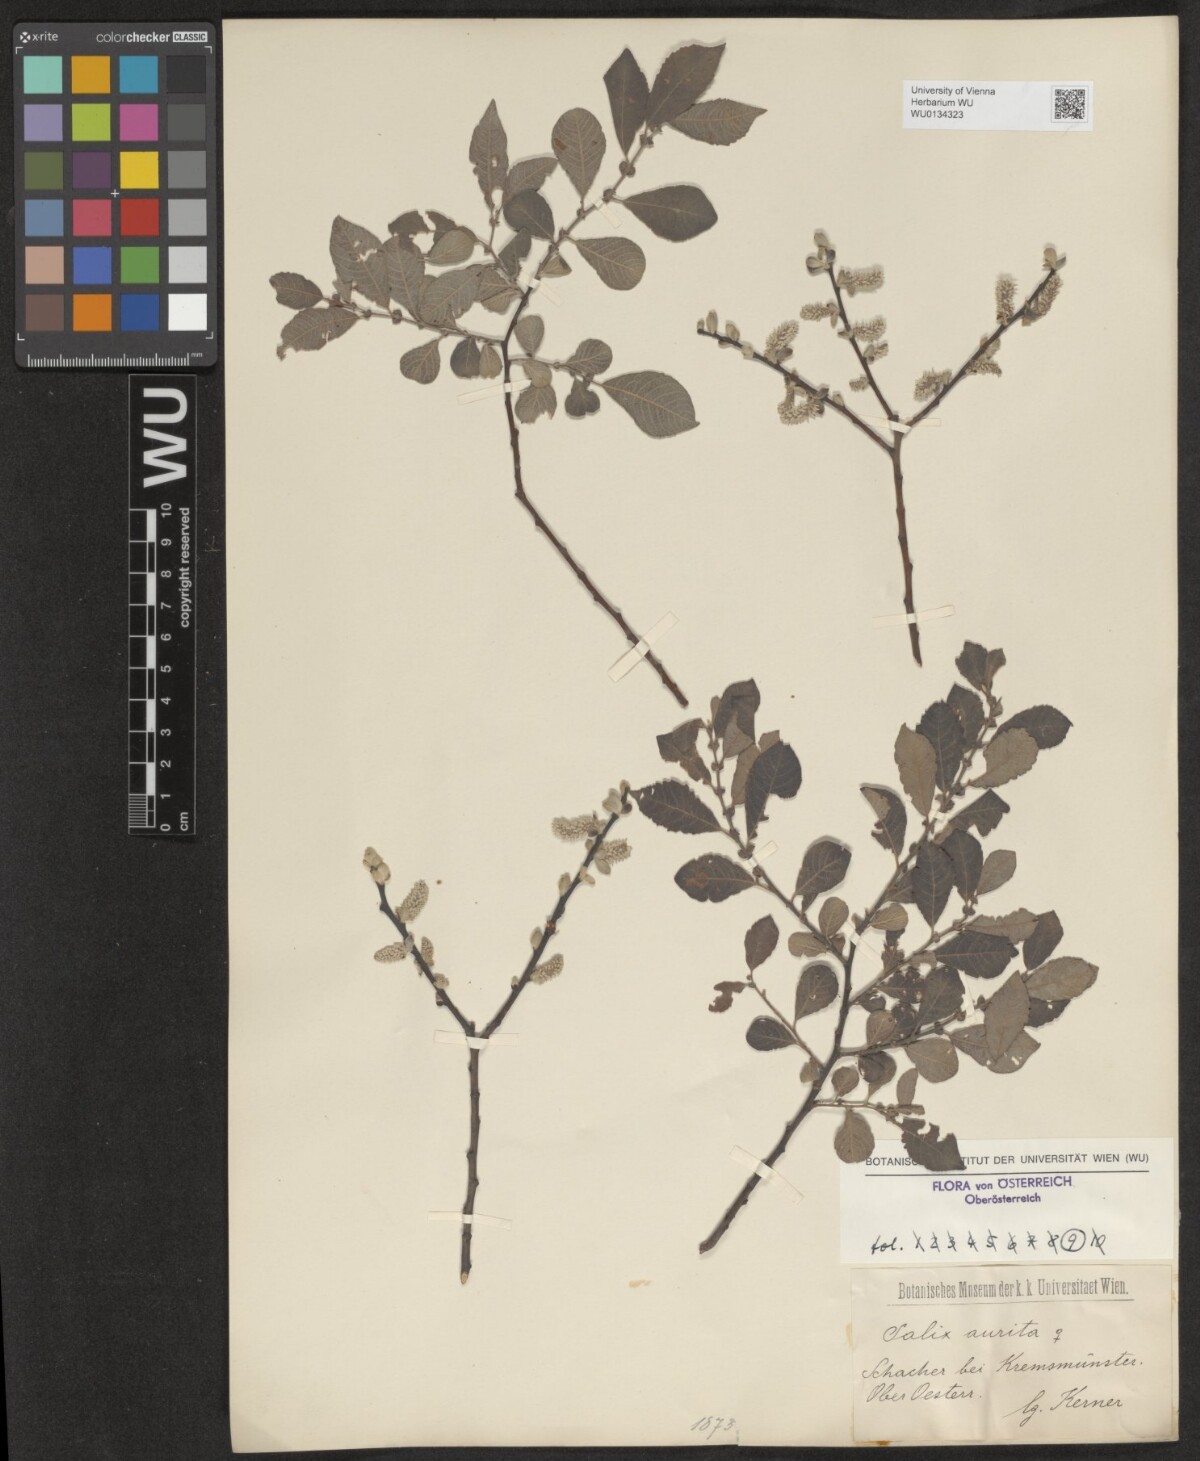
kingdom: Plantae
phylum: Tracheophyta
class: Magnoliopsida
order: Malpighiales
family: Salicaceae
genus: Salix
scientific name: Salix aurita
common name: Eared willow
